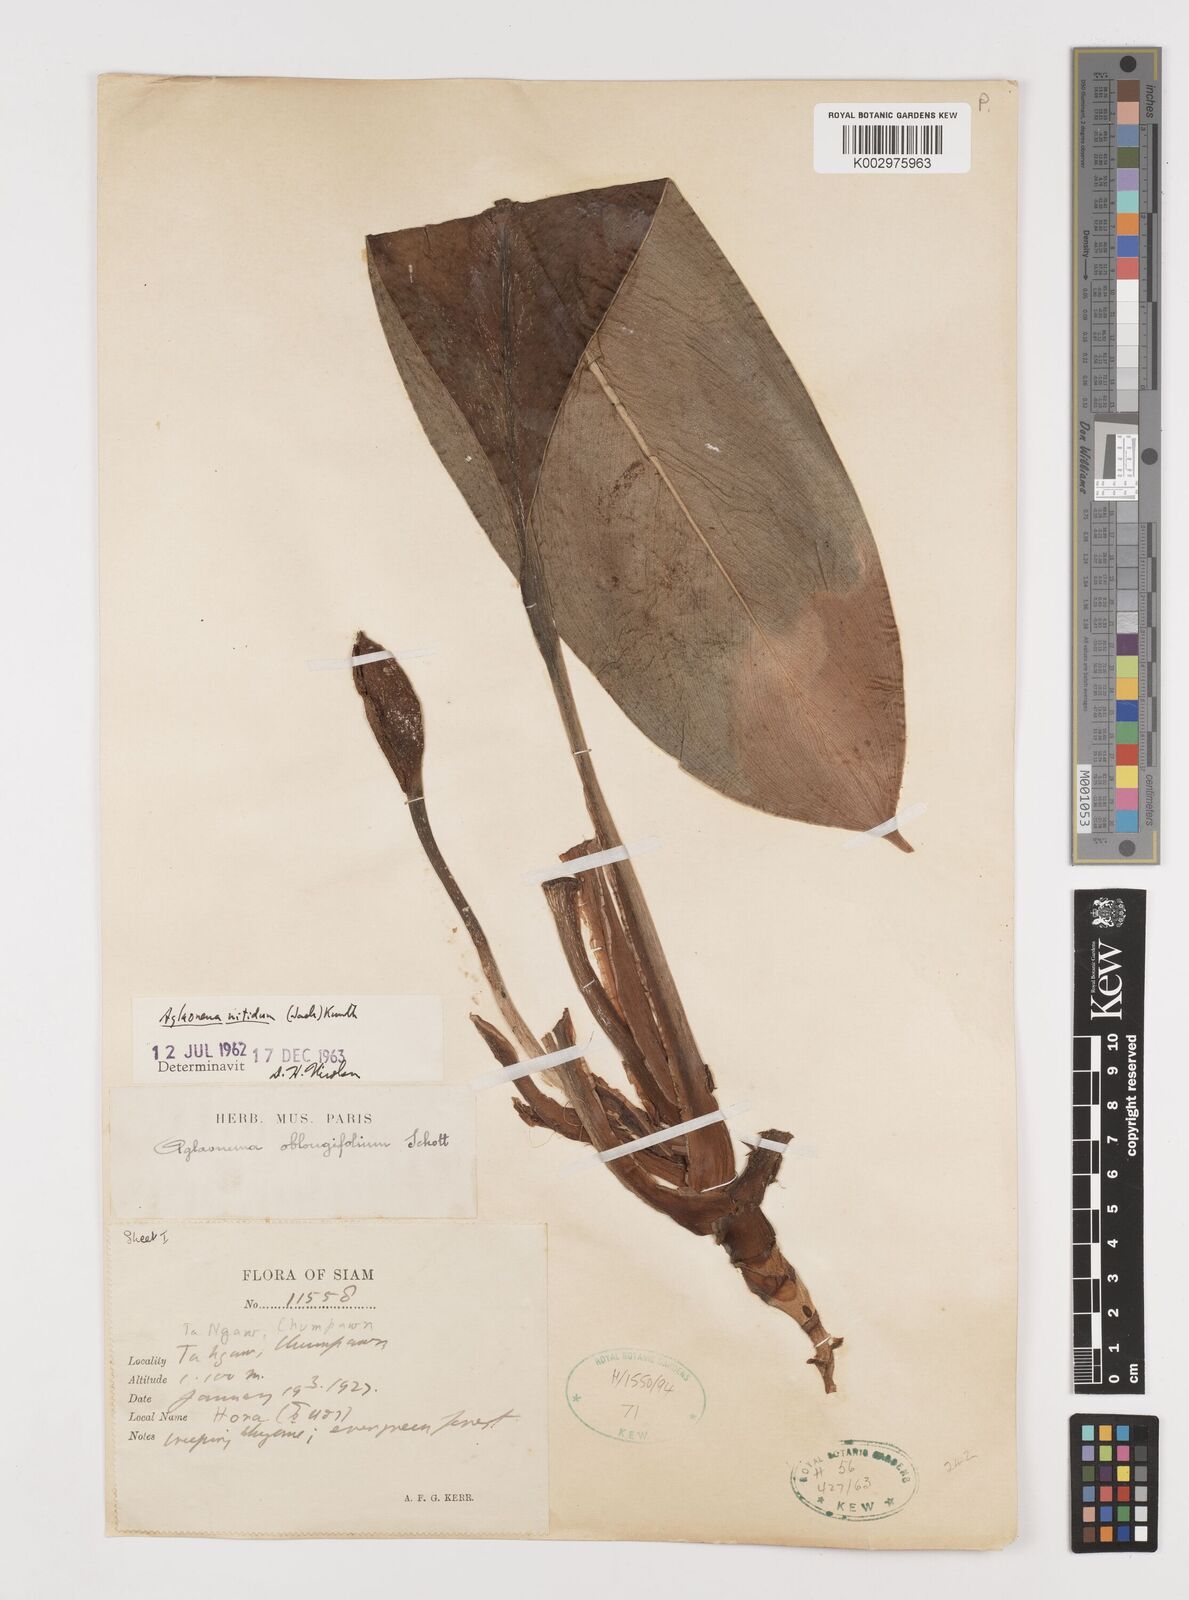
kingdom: Plantae
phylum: Tracheophyta
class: Liliopsida
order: Alismatales
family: Araceae
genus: Aglaonema
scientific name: Aglaonema nitidum
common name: Aglaonema aroid
